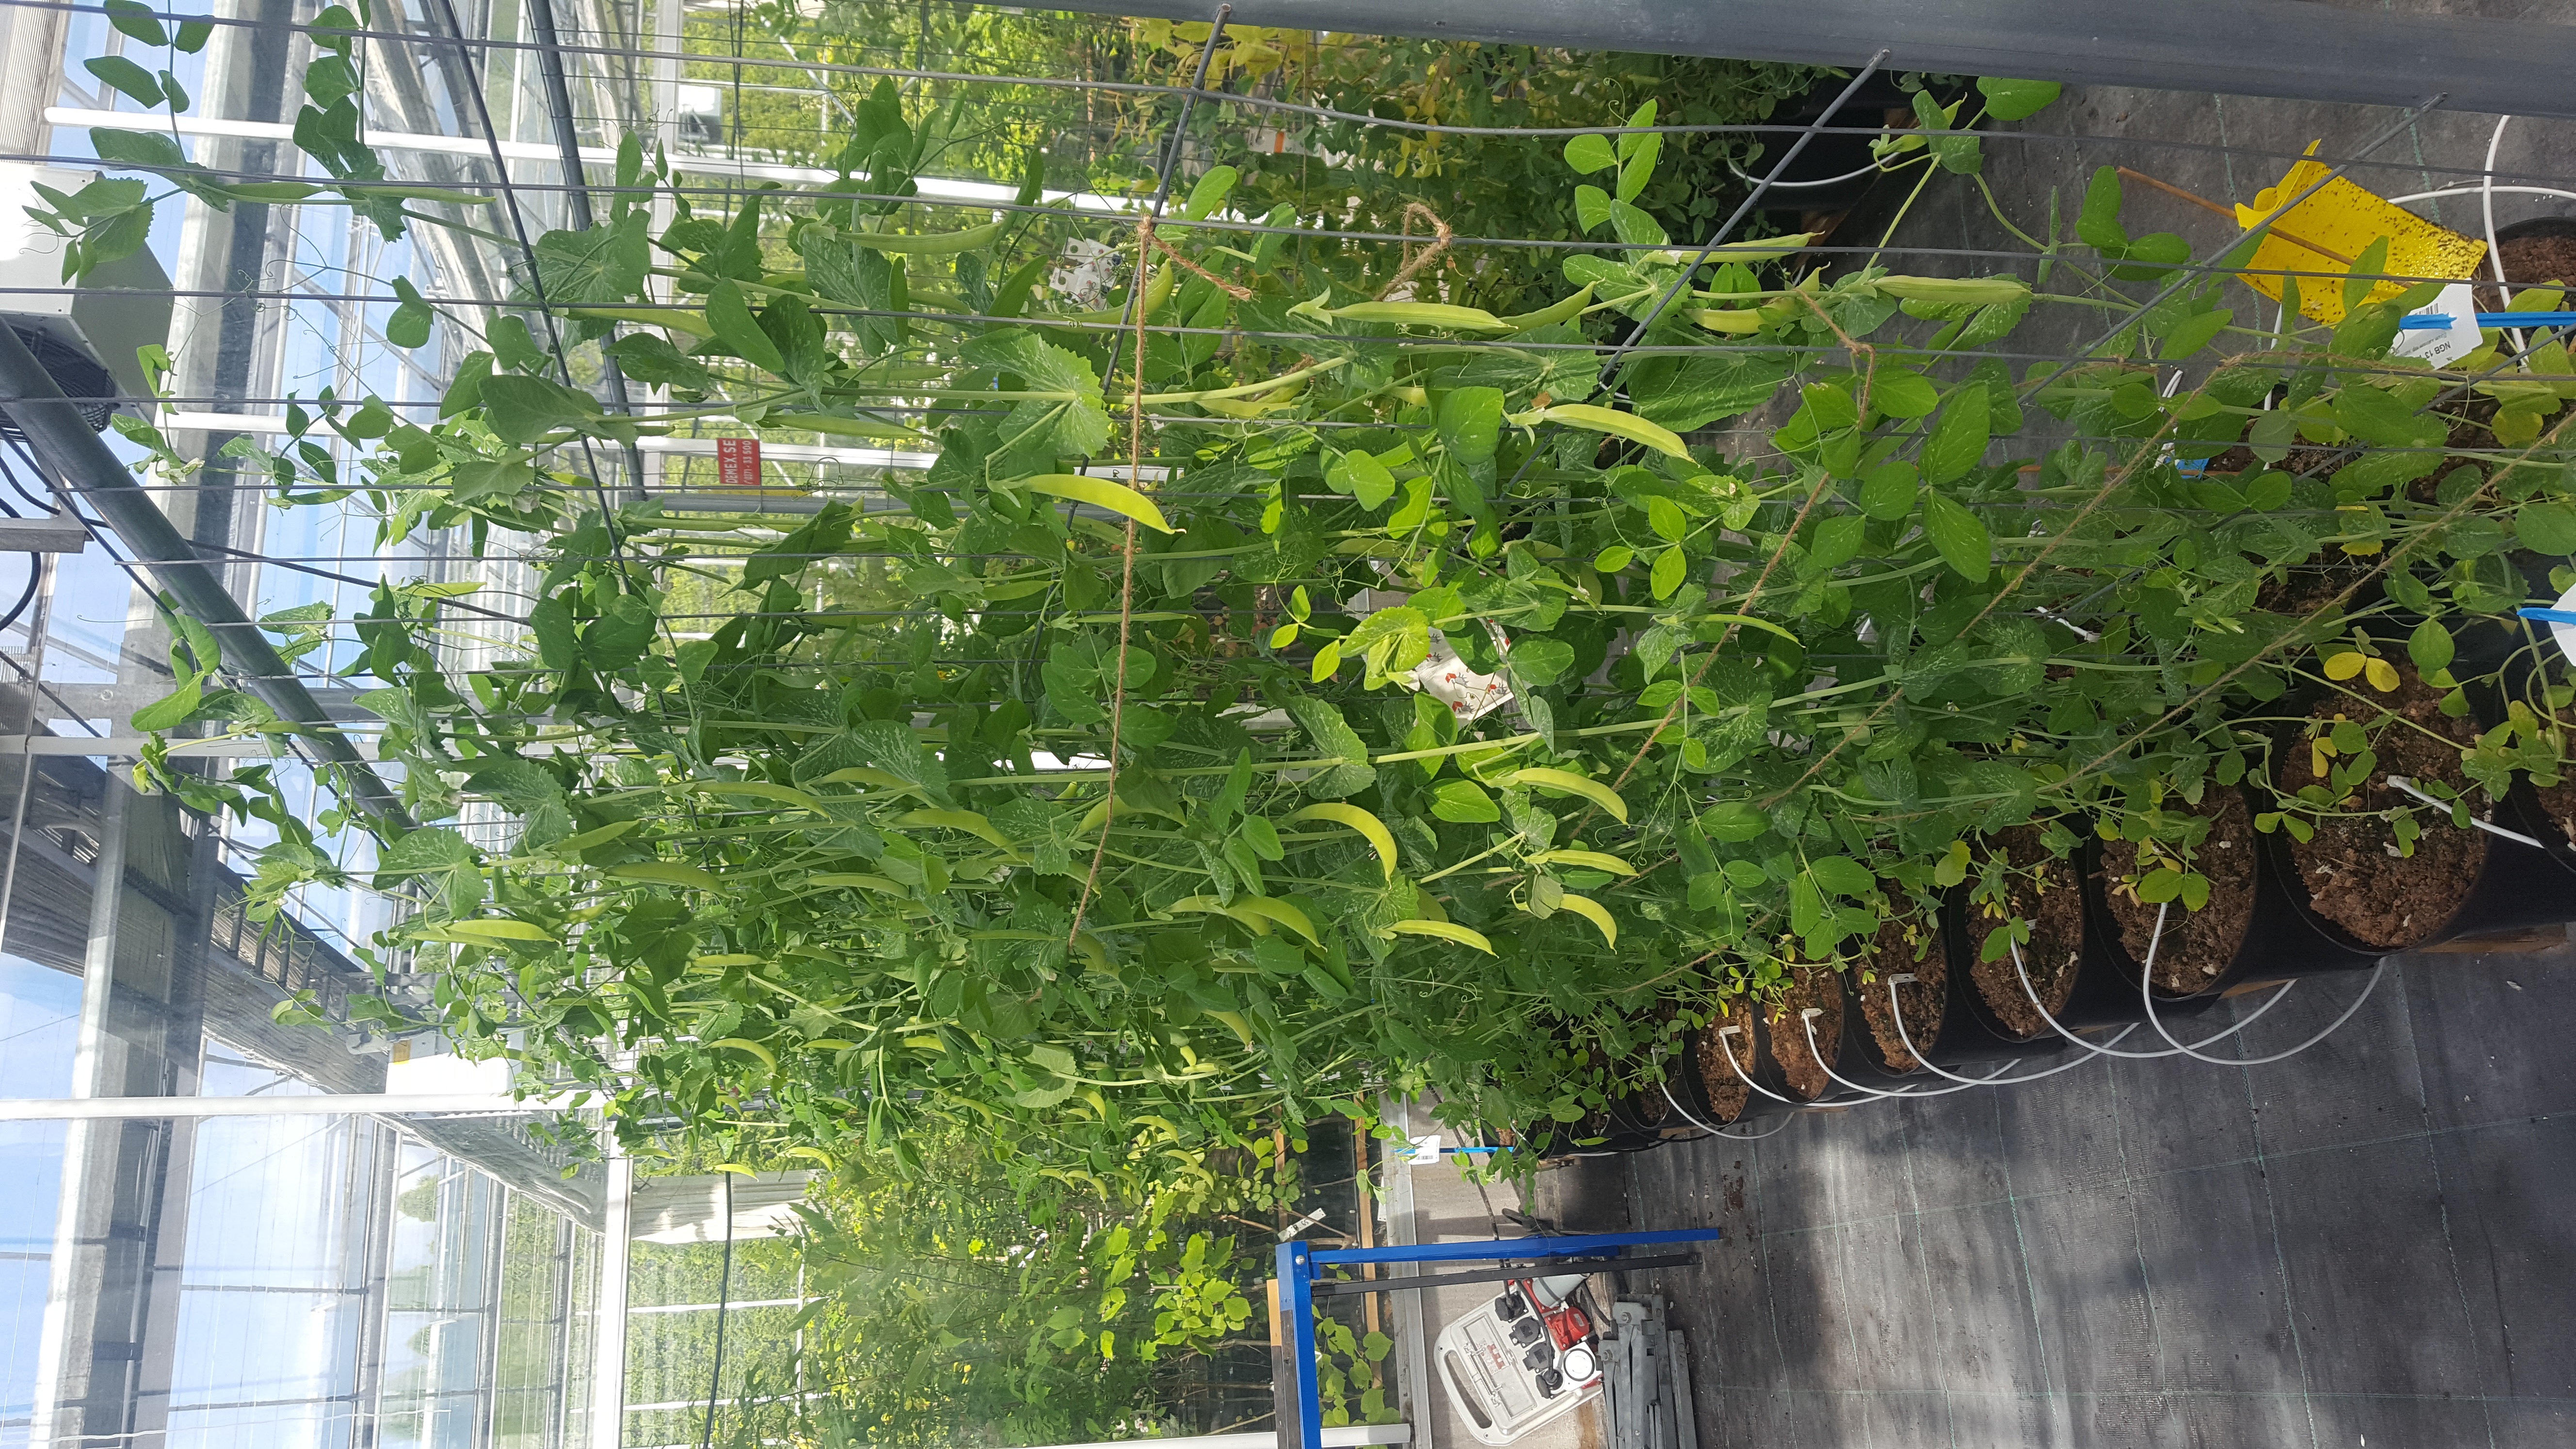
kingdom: Plantae
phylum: Tracheophyta
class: Magnoliopsida
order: Fabales
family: Fabaceae
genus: Lathyrus
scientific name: Lathyrus oleraceus
